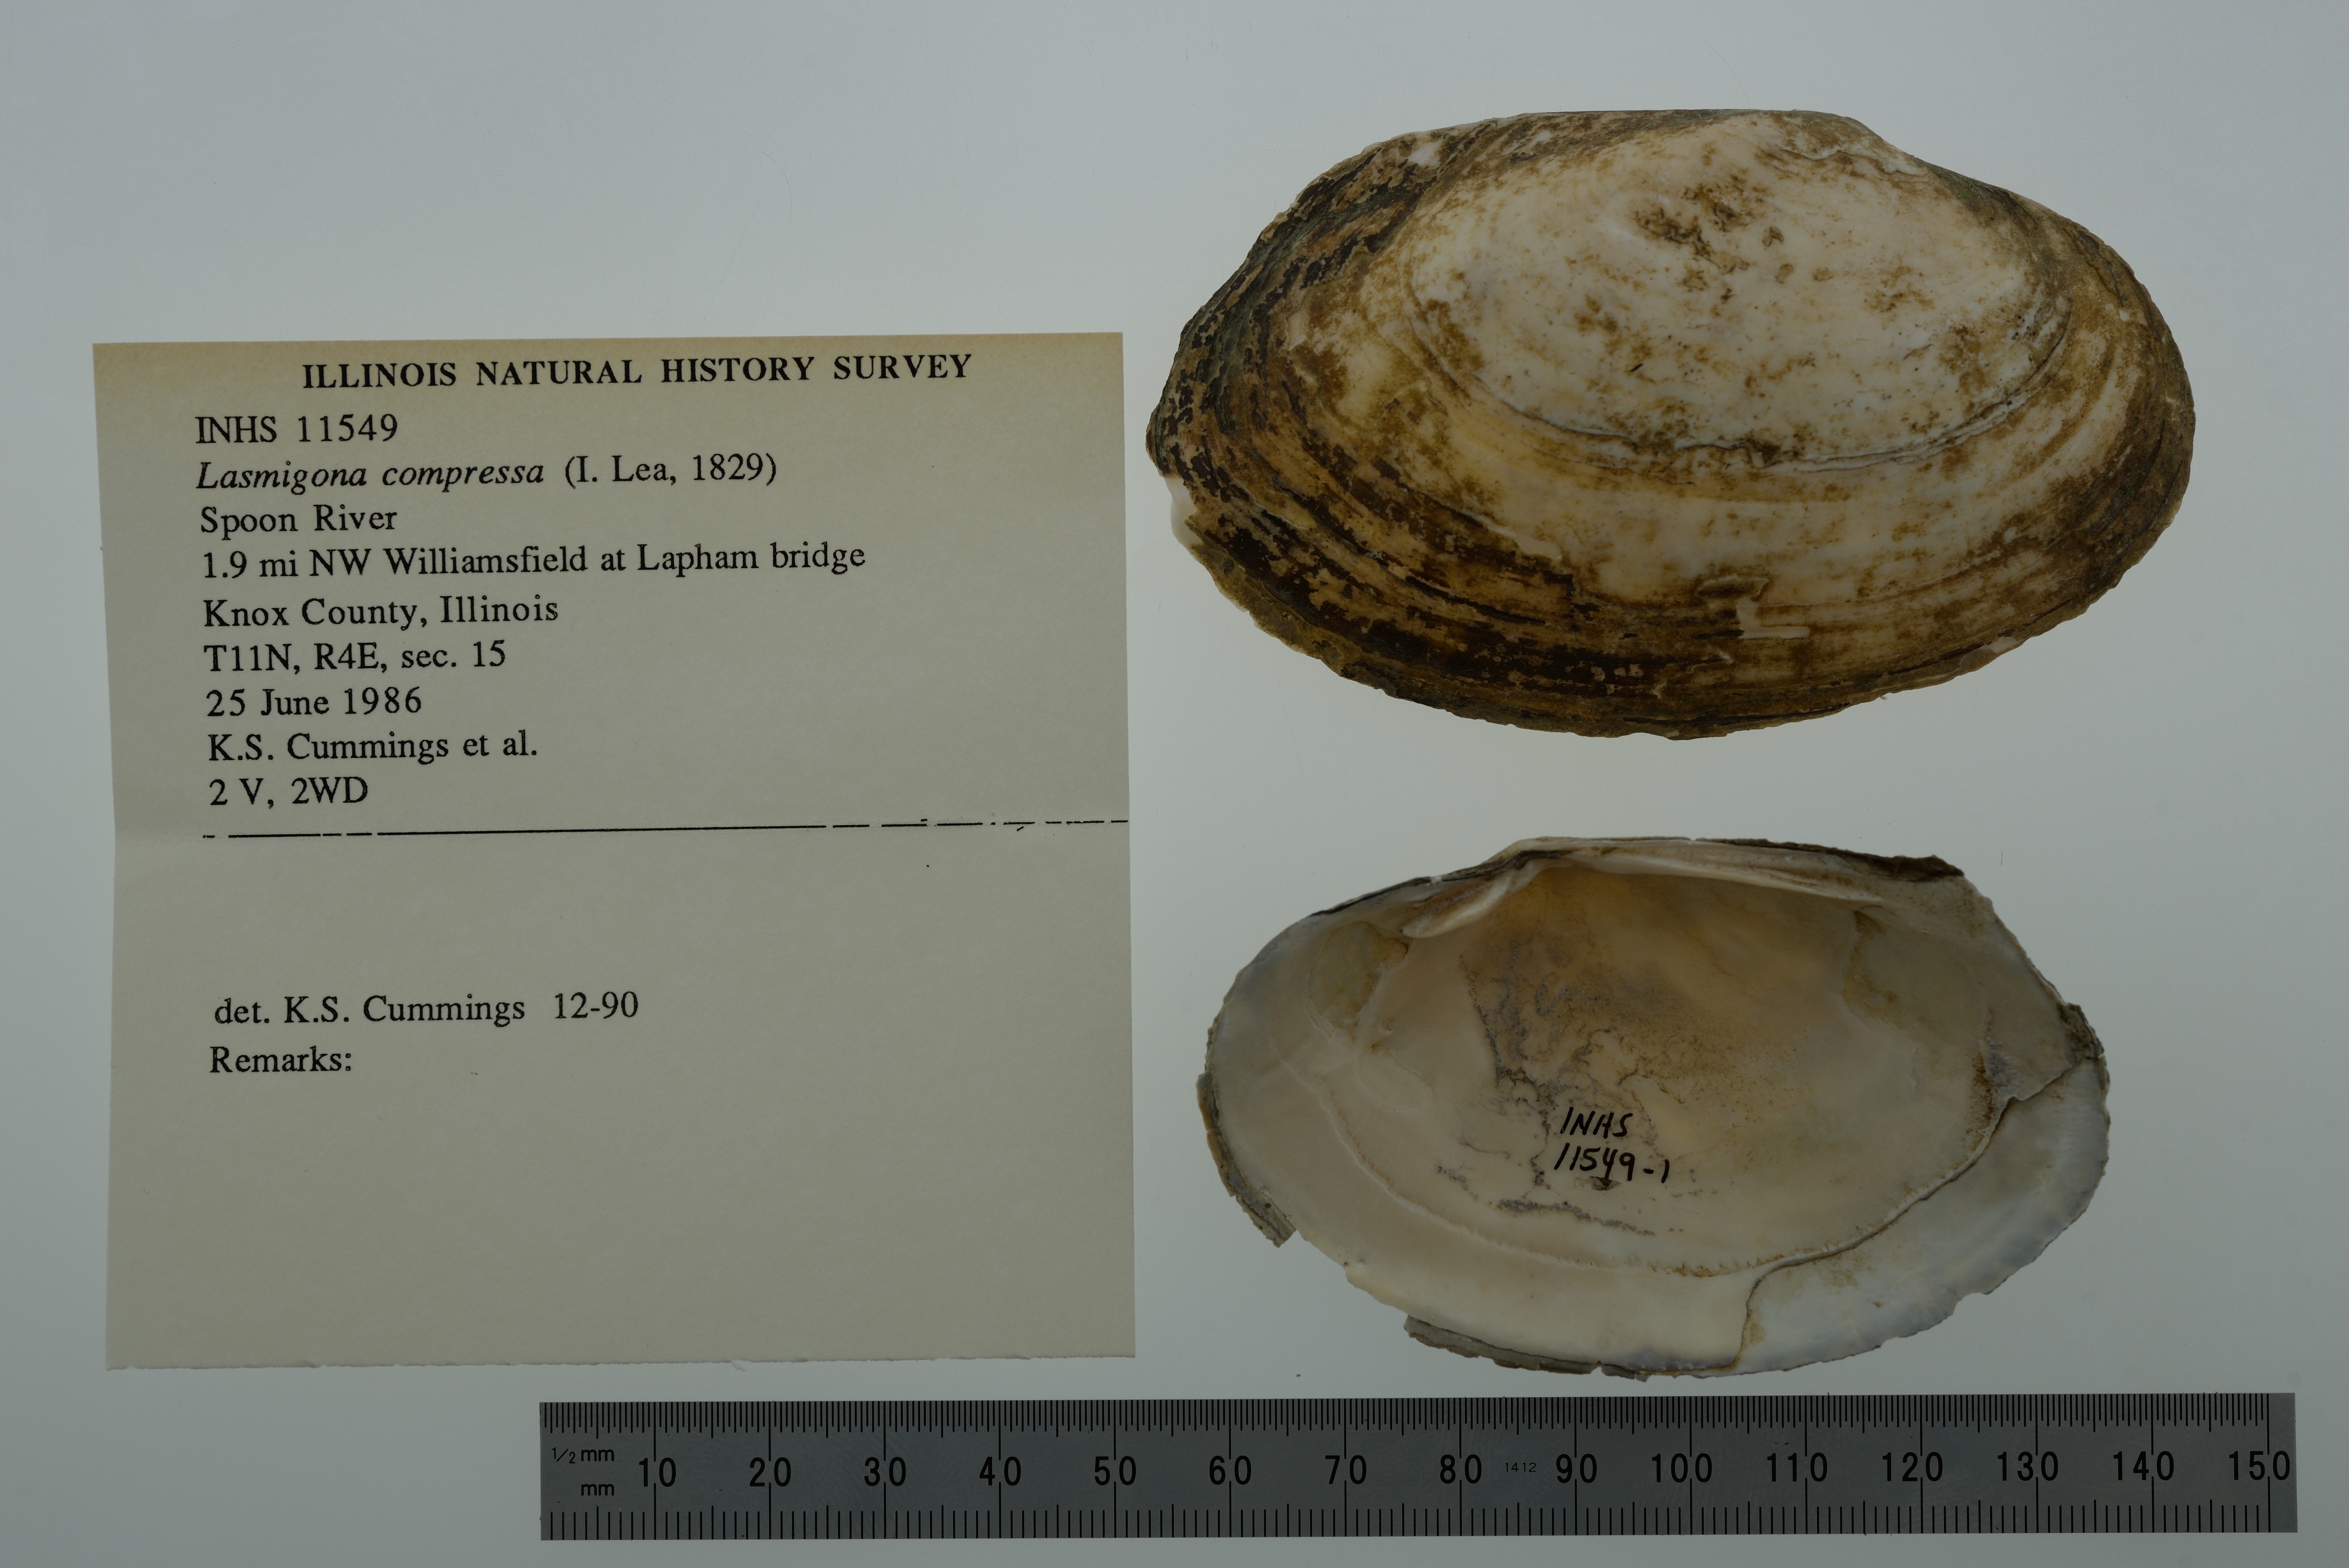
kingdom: Animalia
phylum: Mollusca
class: Bivalvia
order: Unionida
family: Unionidae
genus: Lasmigona
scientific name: Lasmigona compressa
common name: Creek heelsplitter
